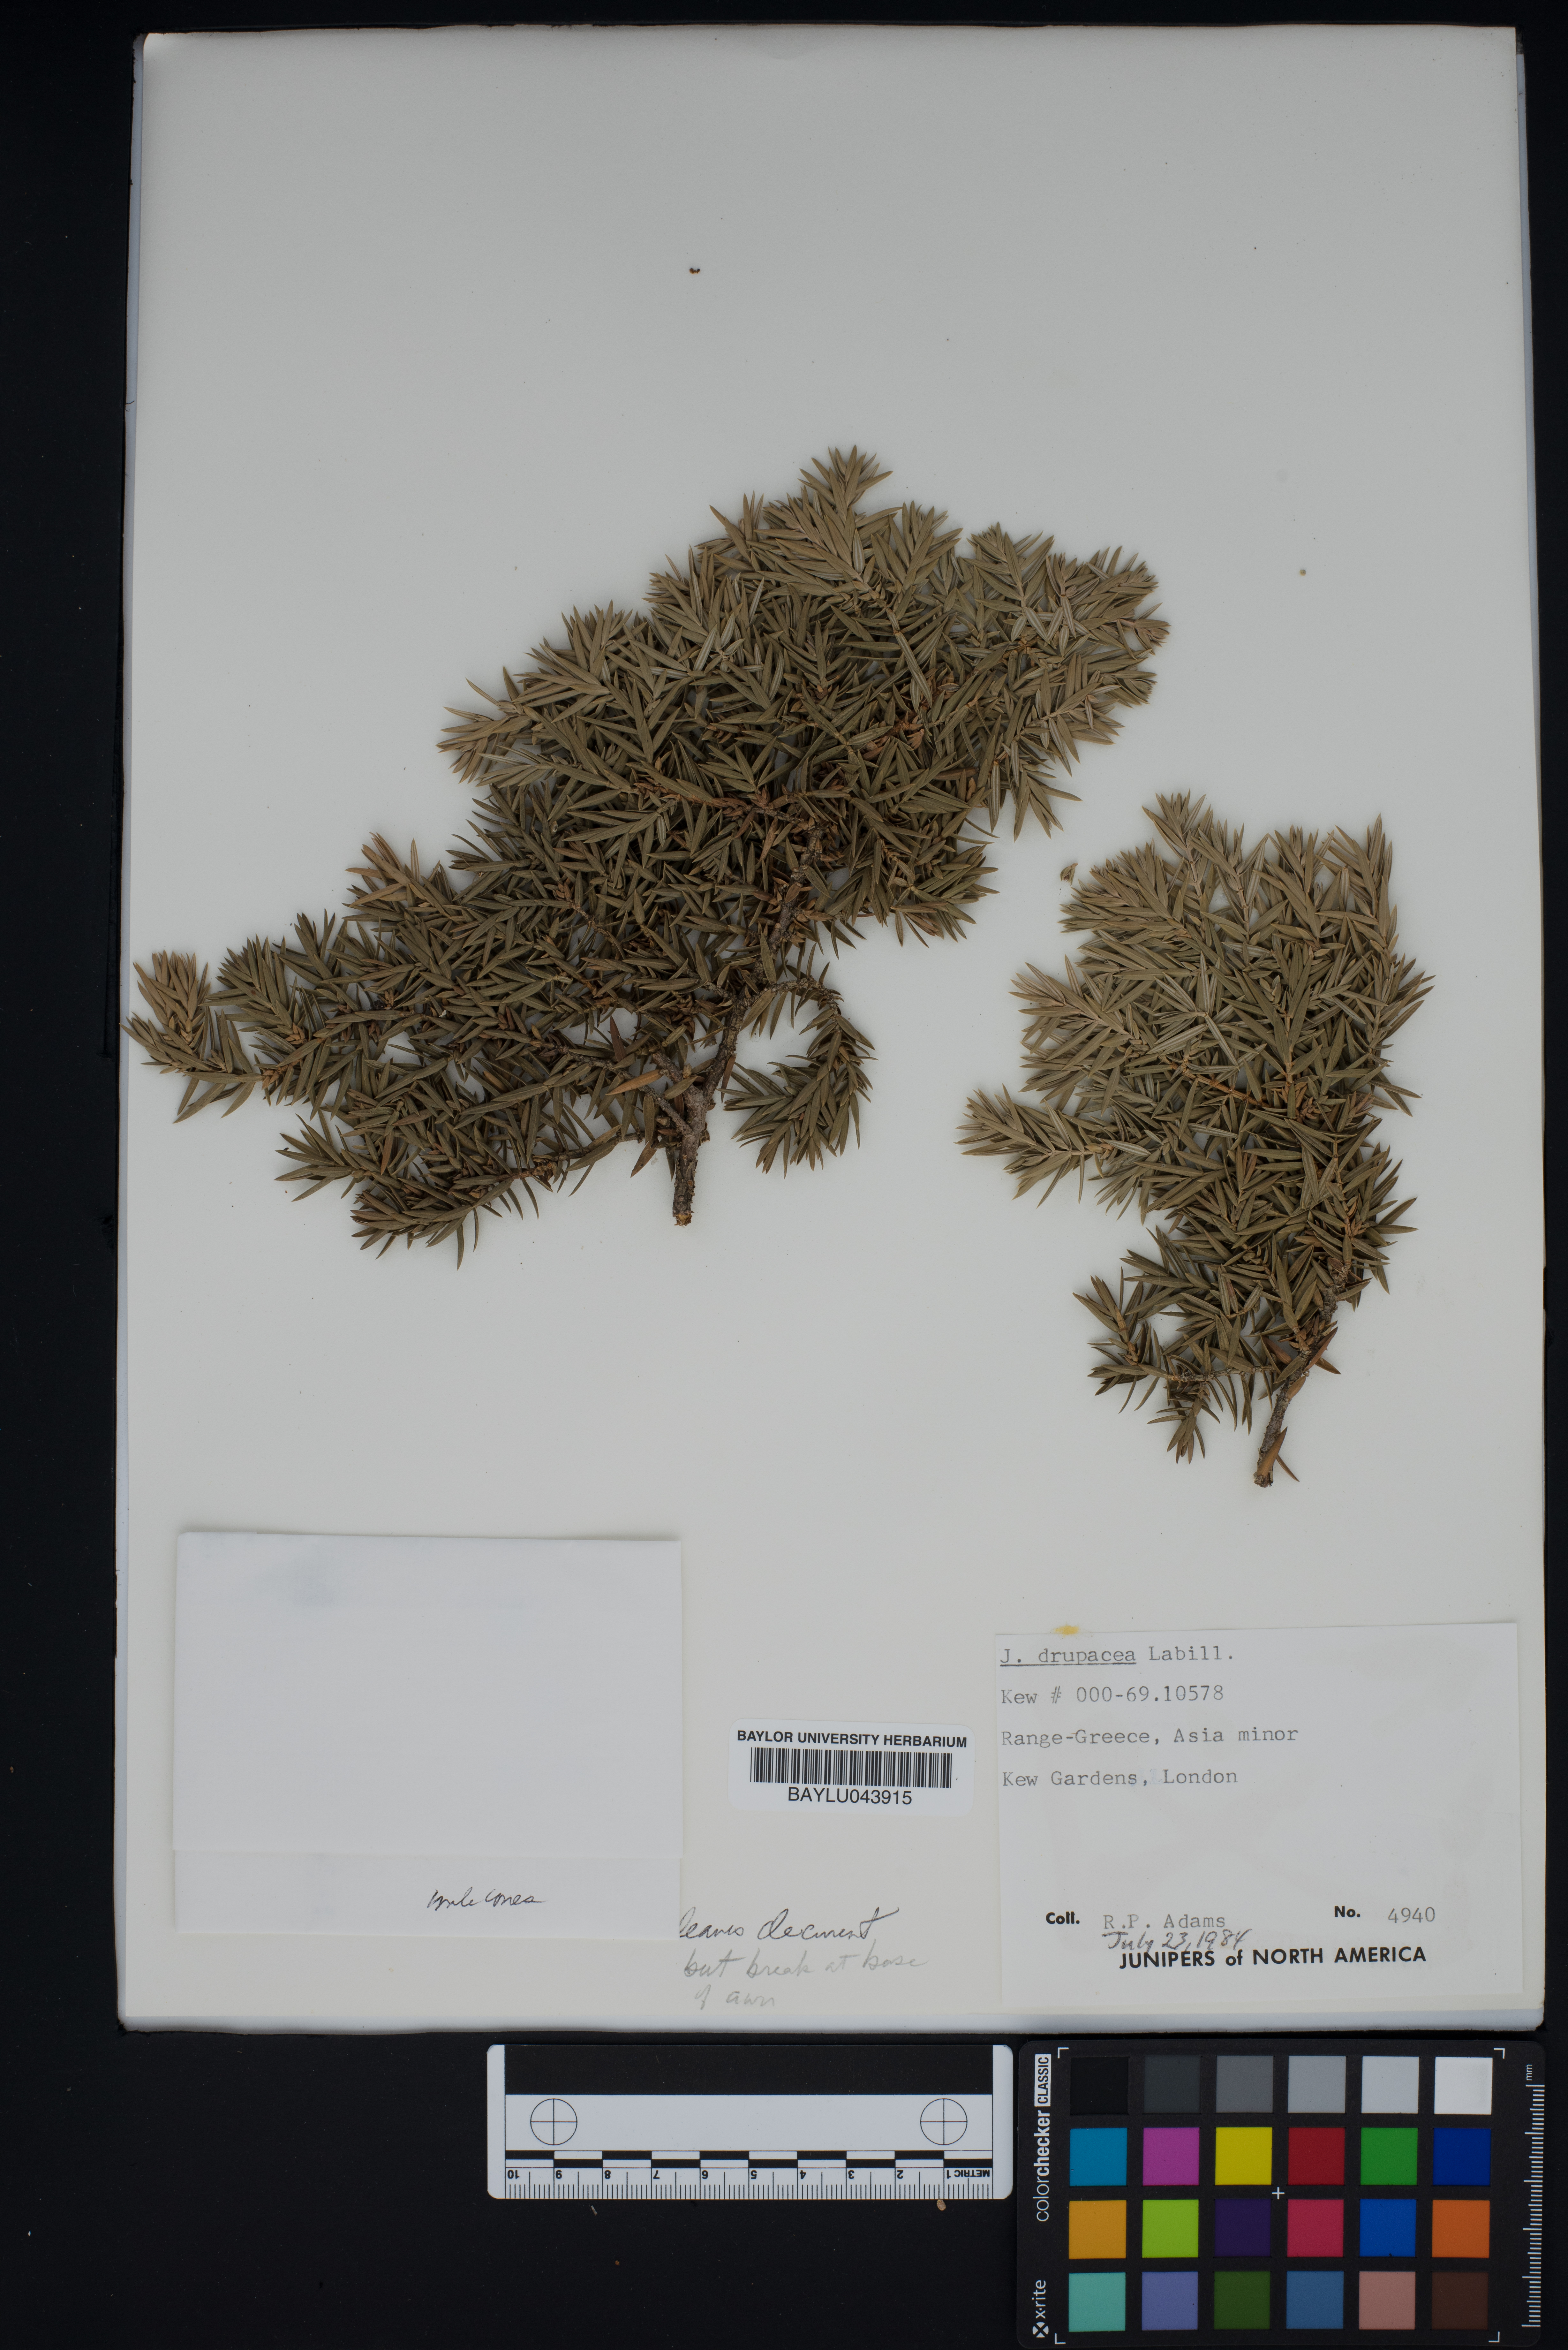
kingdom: Plantae
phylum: Tracheophyta
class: Pinopsida
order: Pinales
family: Cupressaceae
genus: Juniperus
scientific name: Juniperus drupacea
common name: Syrian juniper
